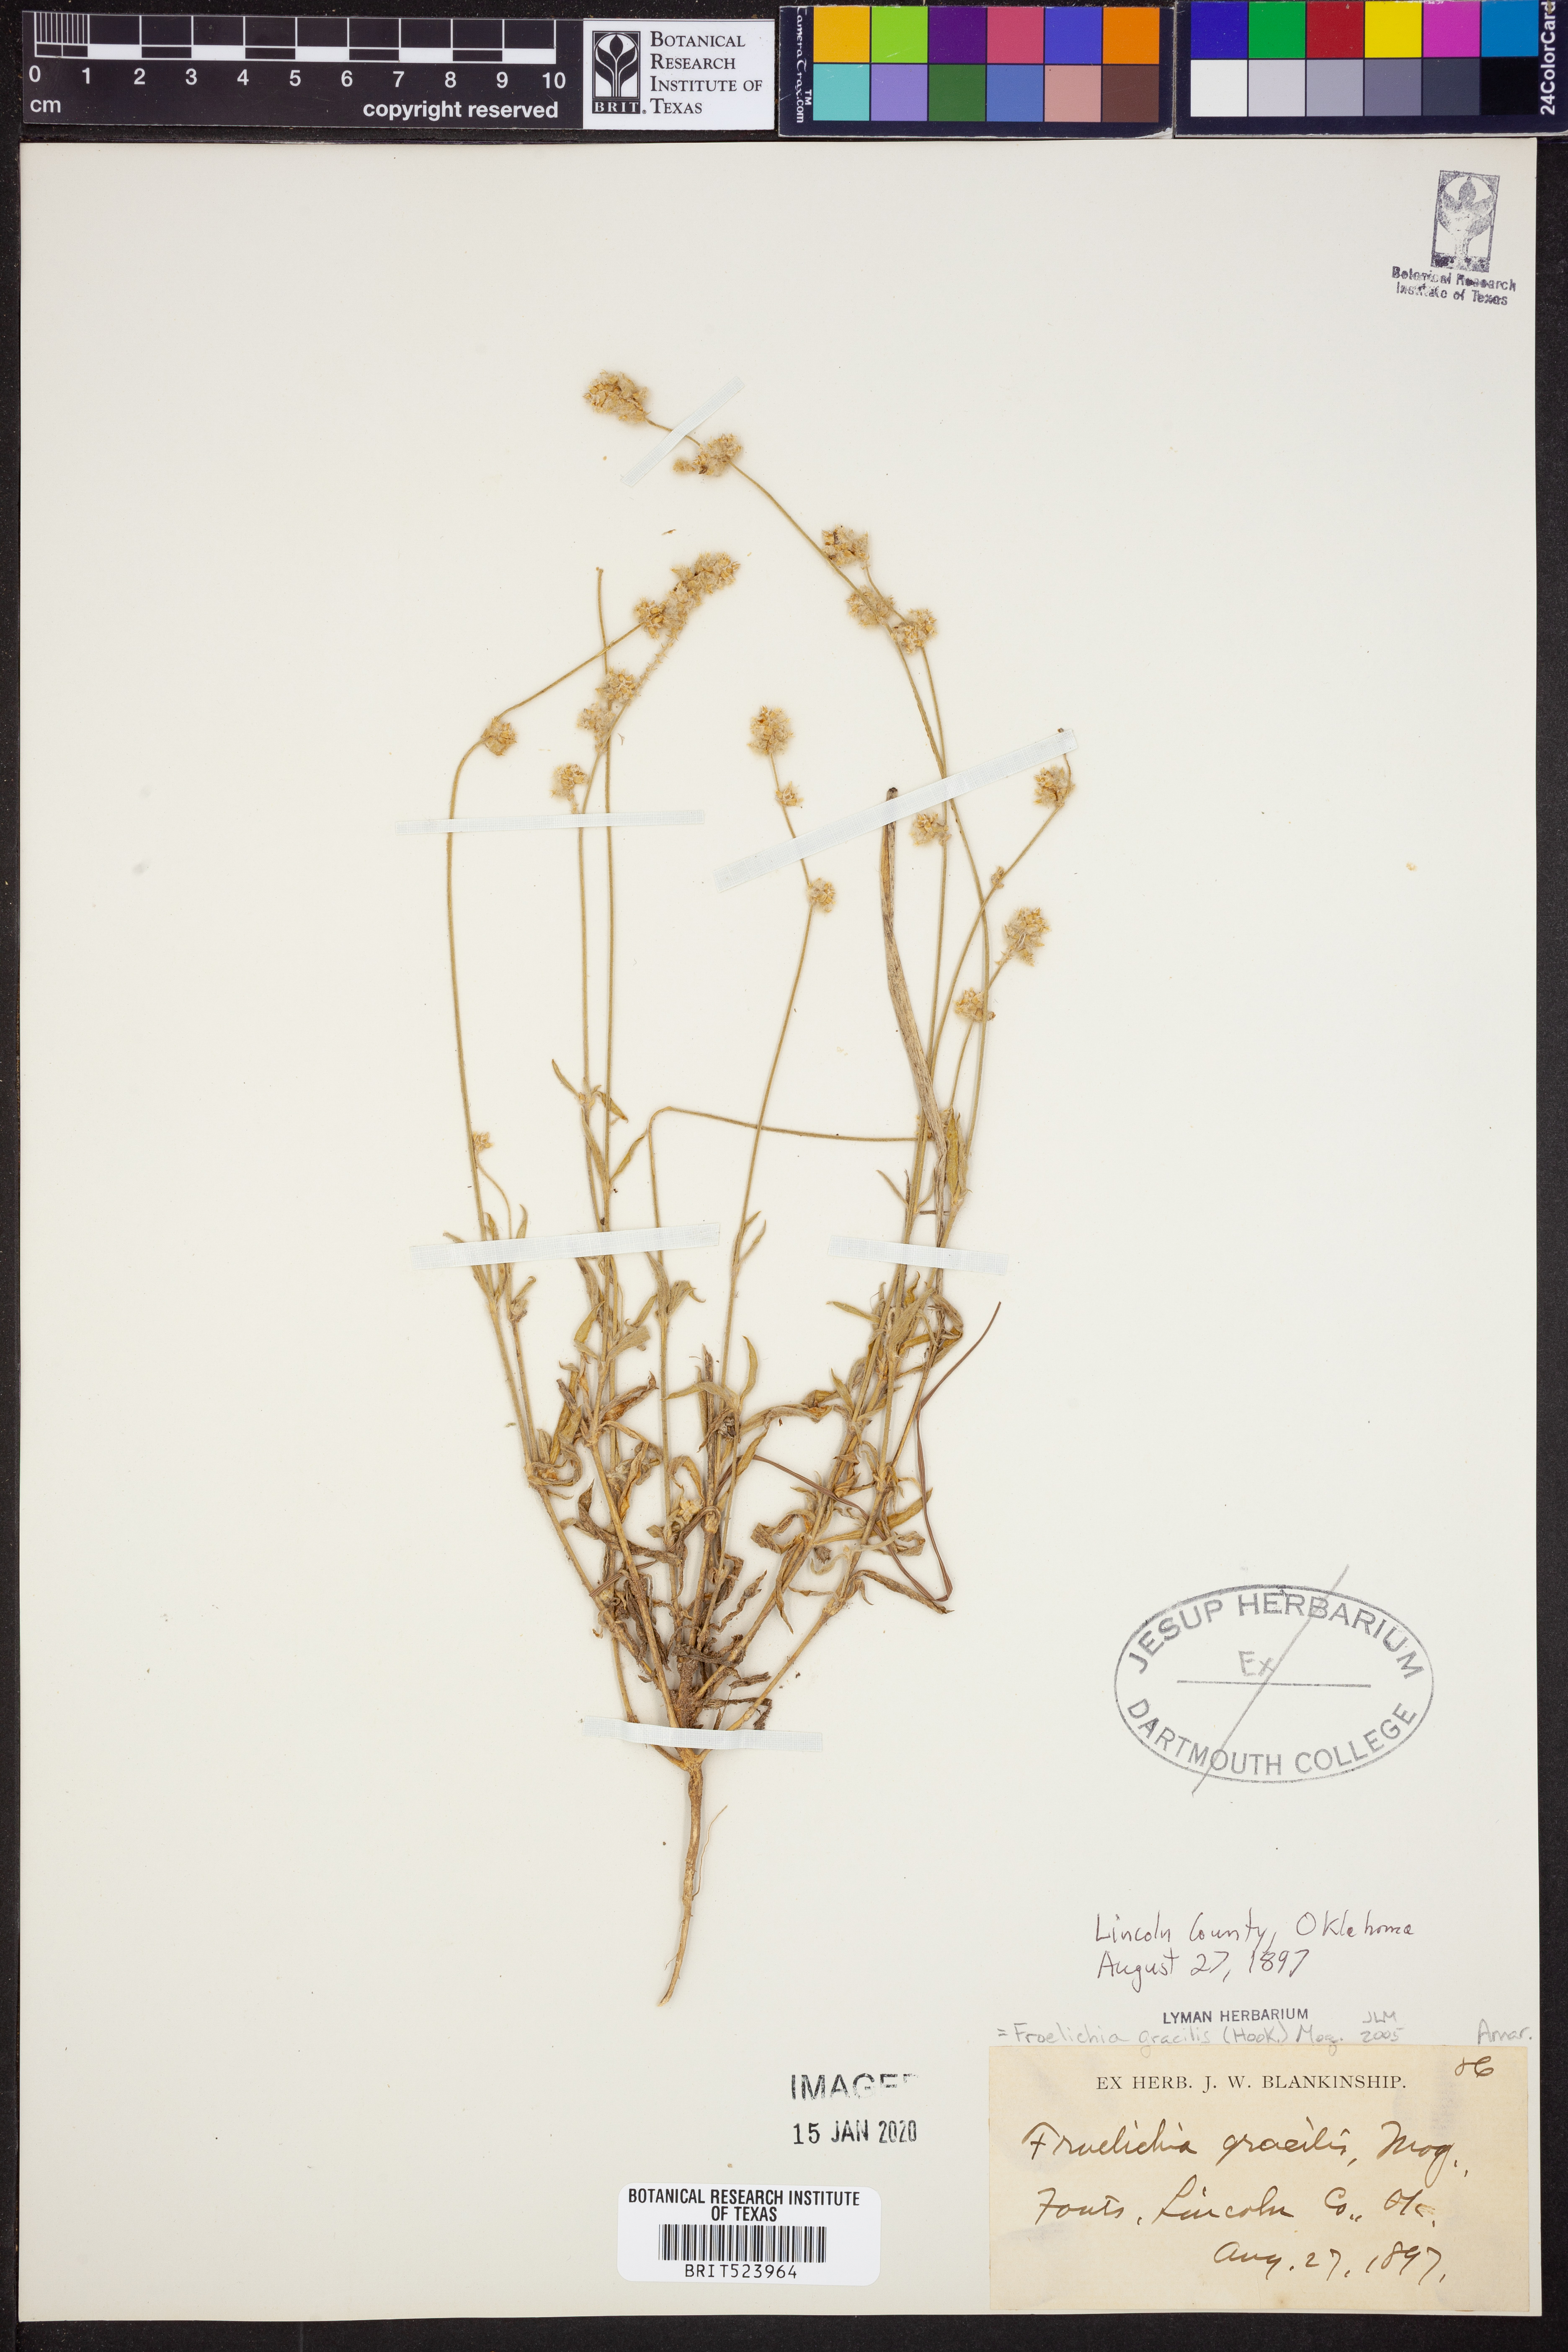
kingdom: Plantae
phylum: Tracheophyta
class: Magnoliopsida
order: Caryophyllales
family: Amaranthaceae
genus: Froelichia
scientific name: Froelichia gracilis
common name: Slender cottonweed
